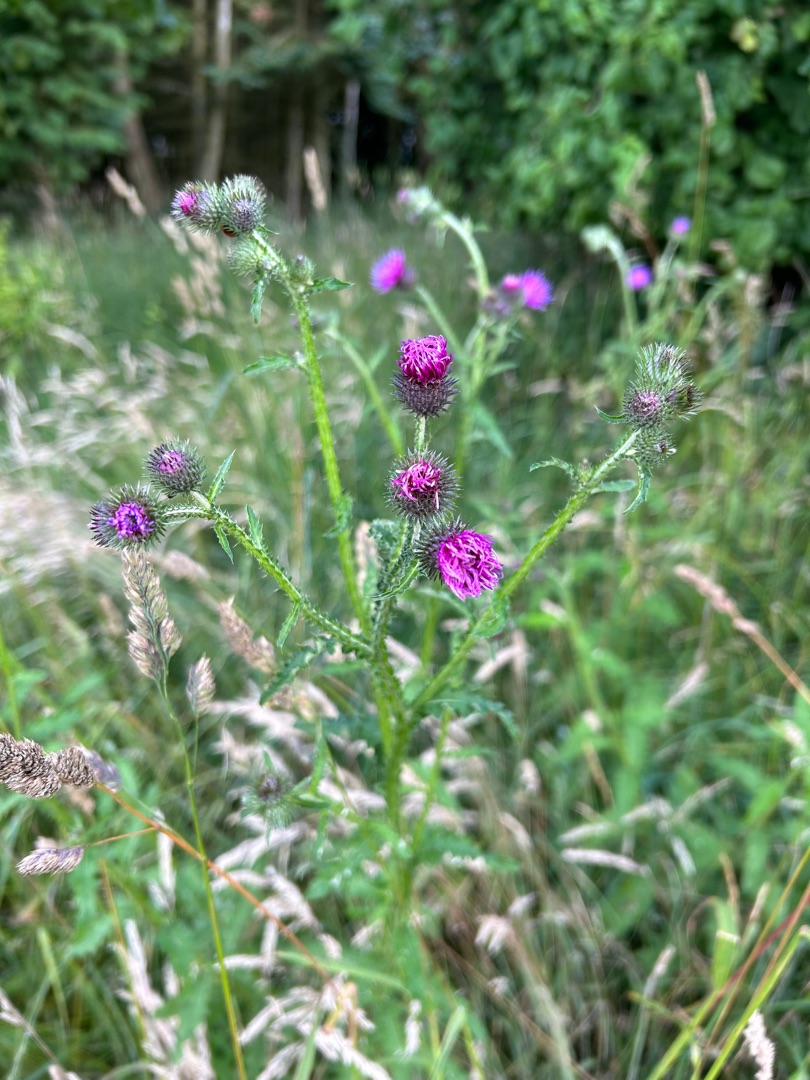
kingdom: Plantae
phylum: Tracheophyta
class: Magnoliopsida
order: Asterales
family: Asteraceae
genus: Carduus
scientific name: Carduus crispus
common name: Kruset tidsel
